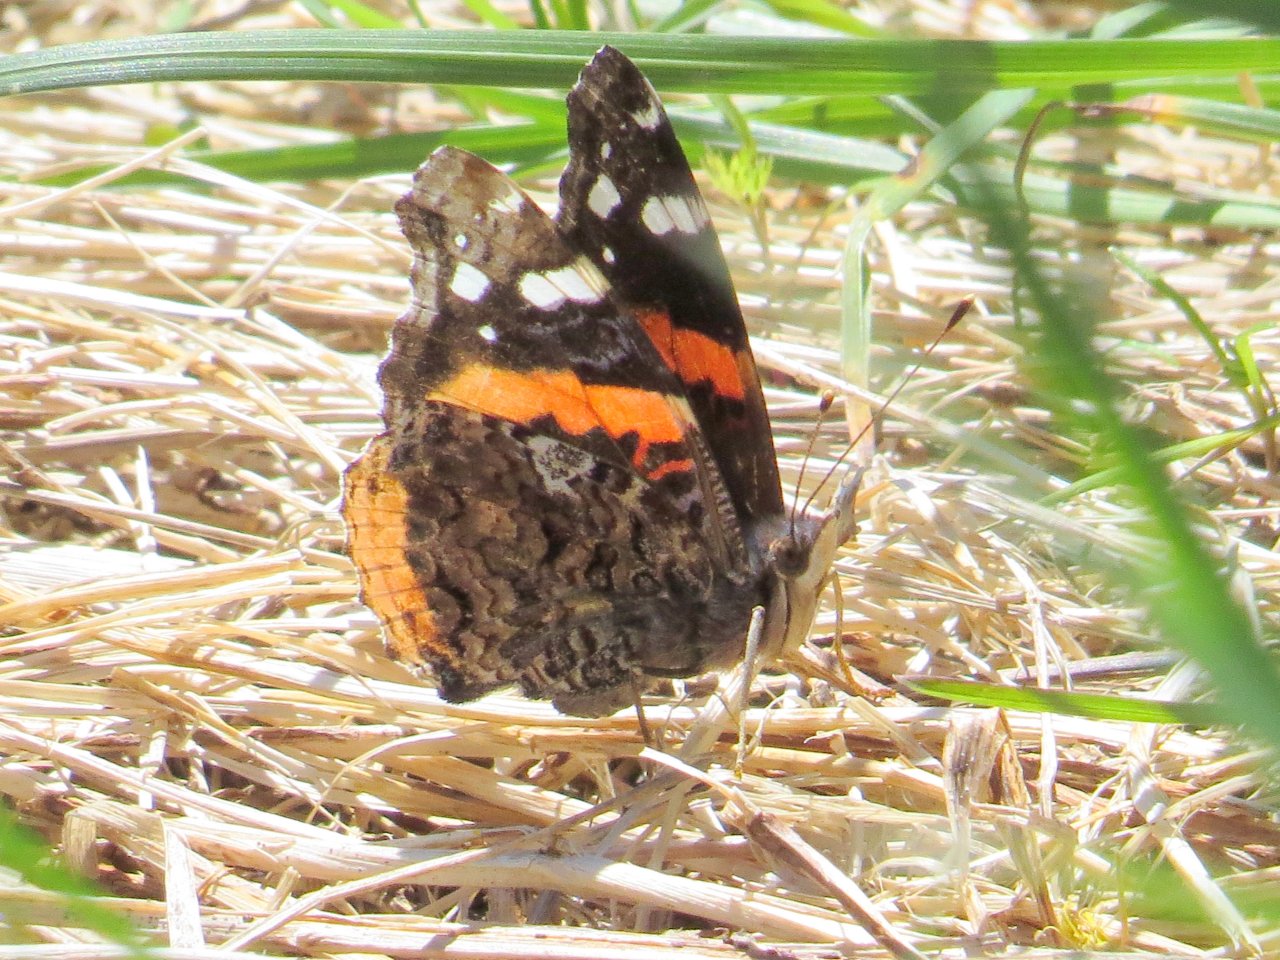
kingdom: Animalia
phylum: Arthropoda
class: Insecta
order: Lepidoptera
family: Nymphalidae
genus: Vanessa
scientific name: Vanessa atalanta
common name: Red Admiral
